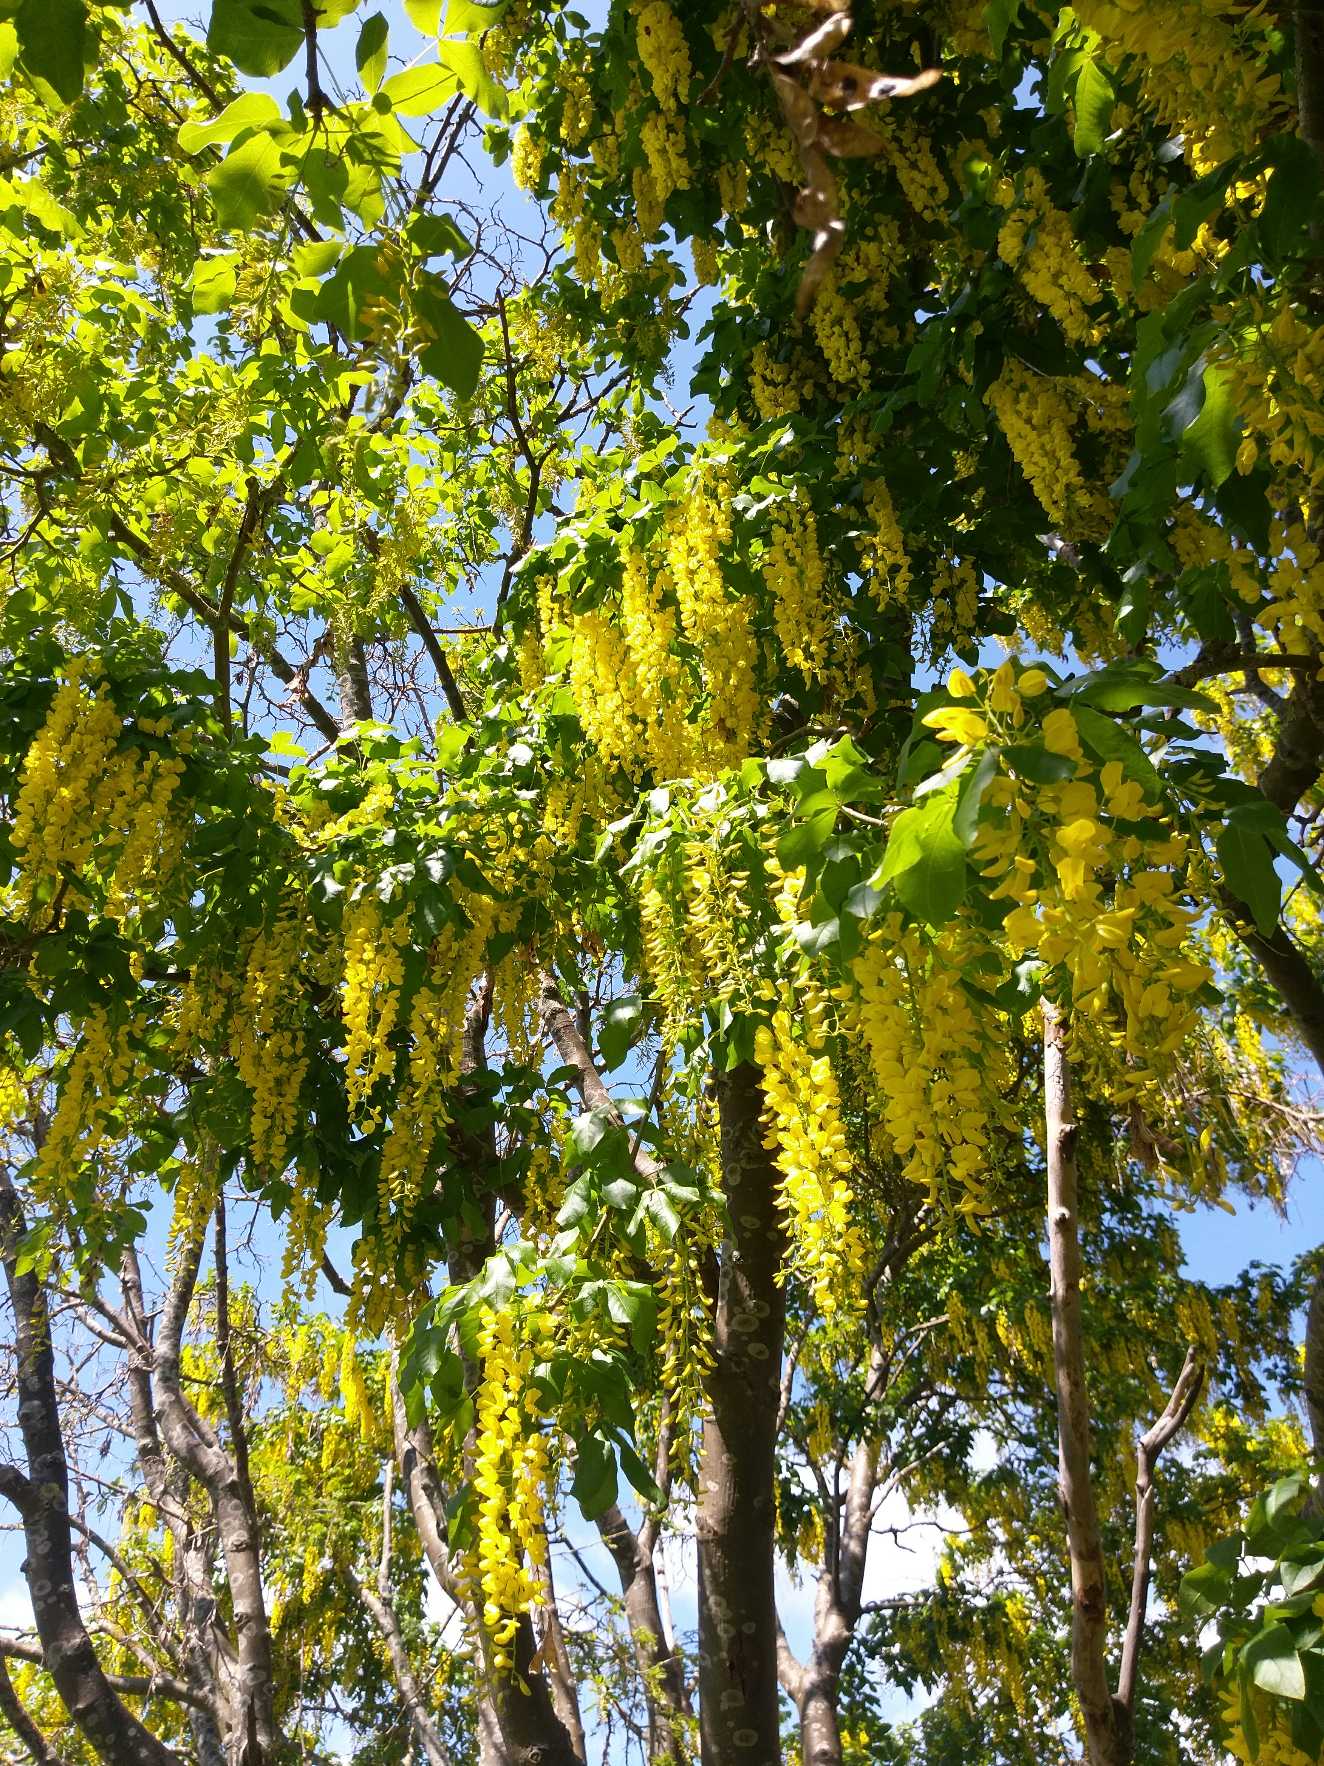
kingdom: Plantae
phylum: Tracheophyta
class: Magnoliopsida
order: Fabales
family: Fabaceae
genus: Laburnum
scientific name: Laburnum alpinum
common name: Alpe-guldregn
